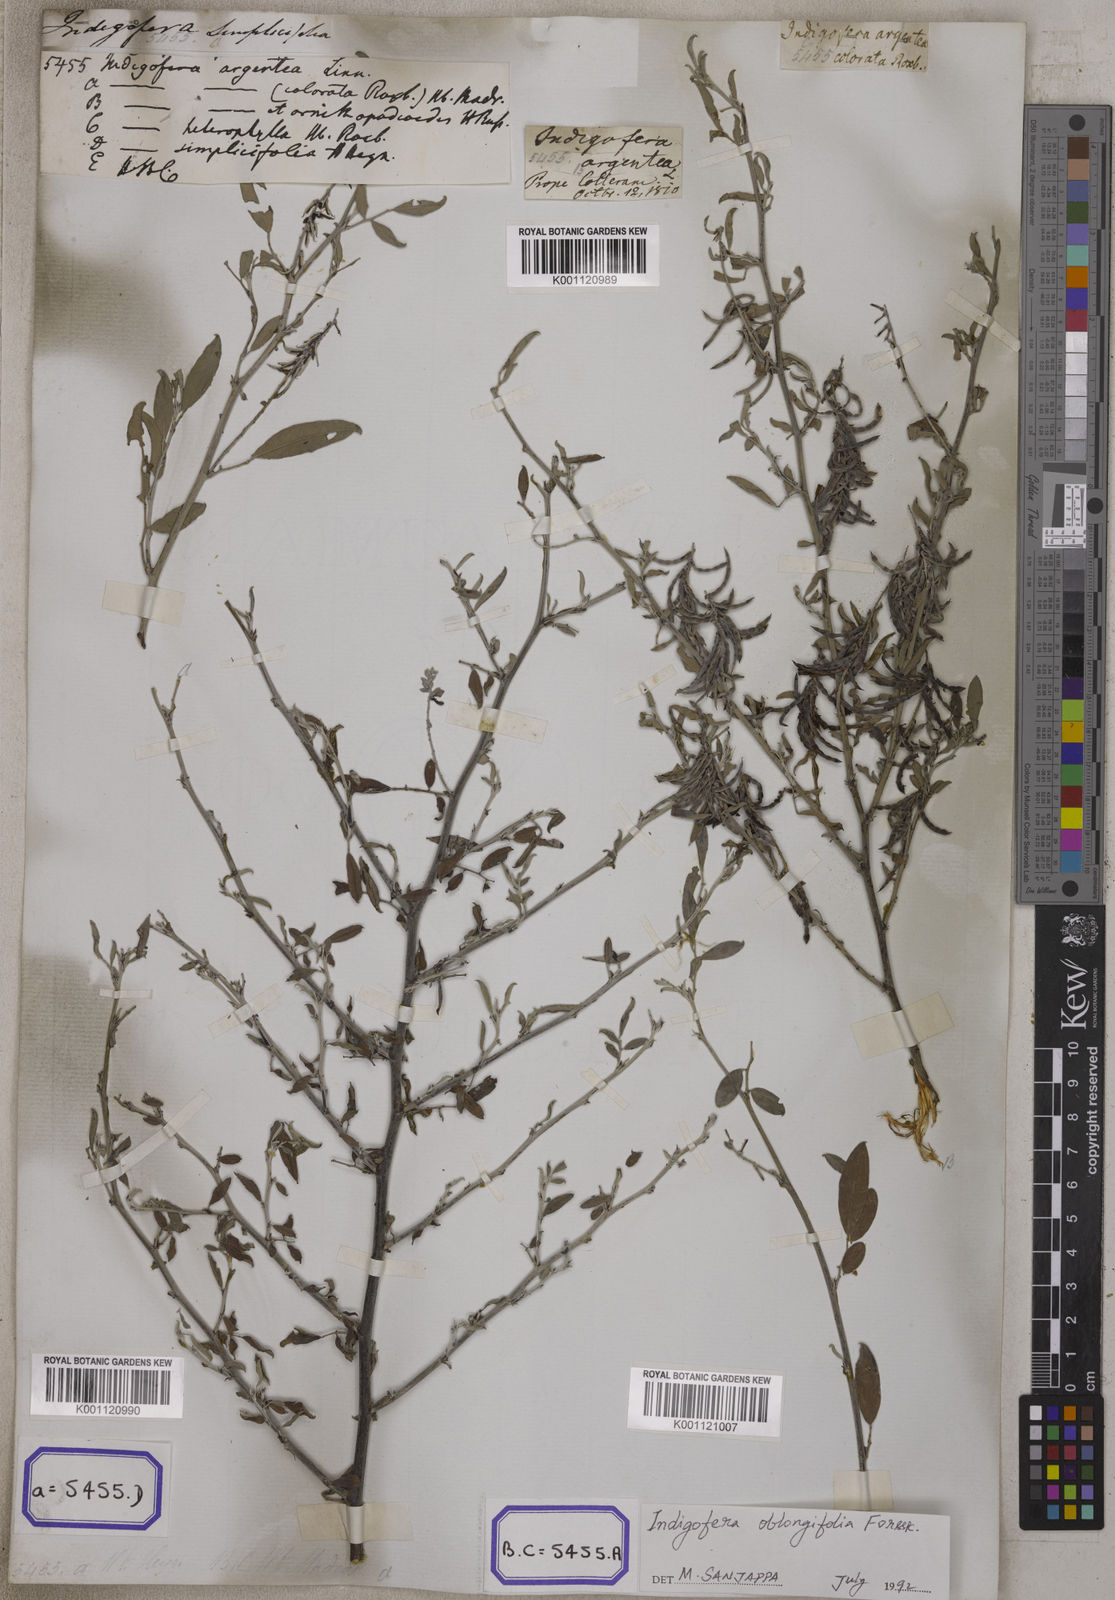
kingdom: Plantae
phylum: Tracheophyta
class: Magnoliopsida
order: Fabales
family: Fabaceae
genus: Indigofera
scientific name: Indigofera
